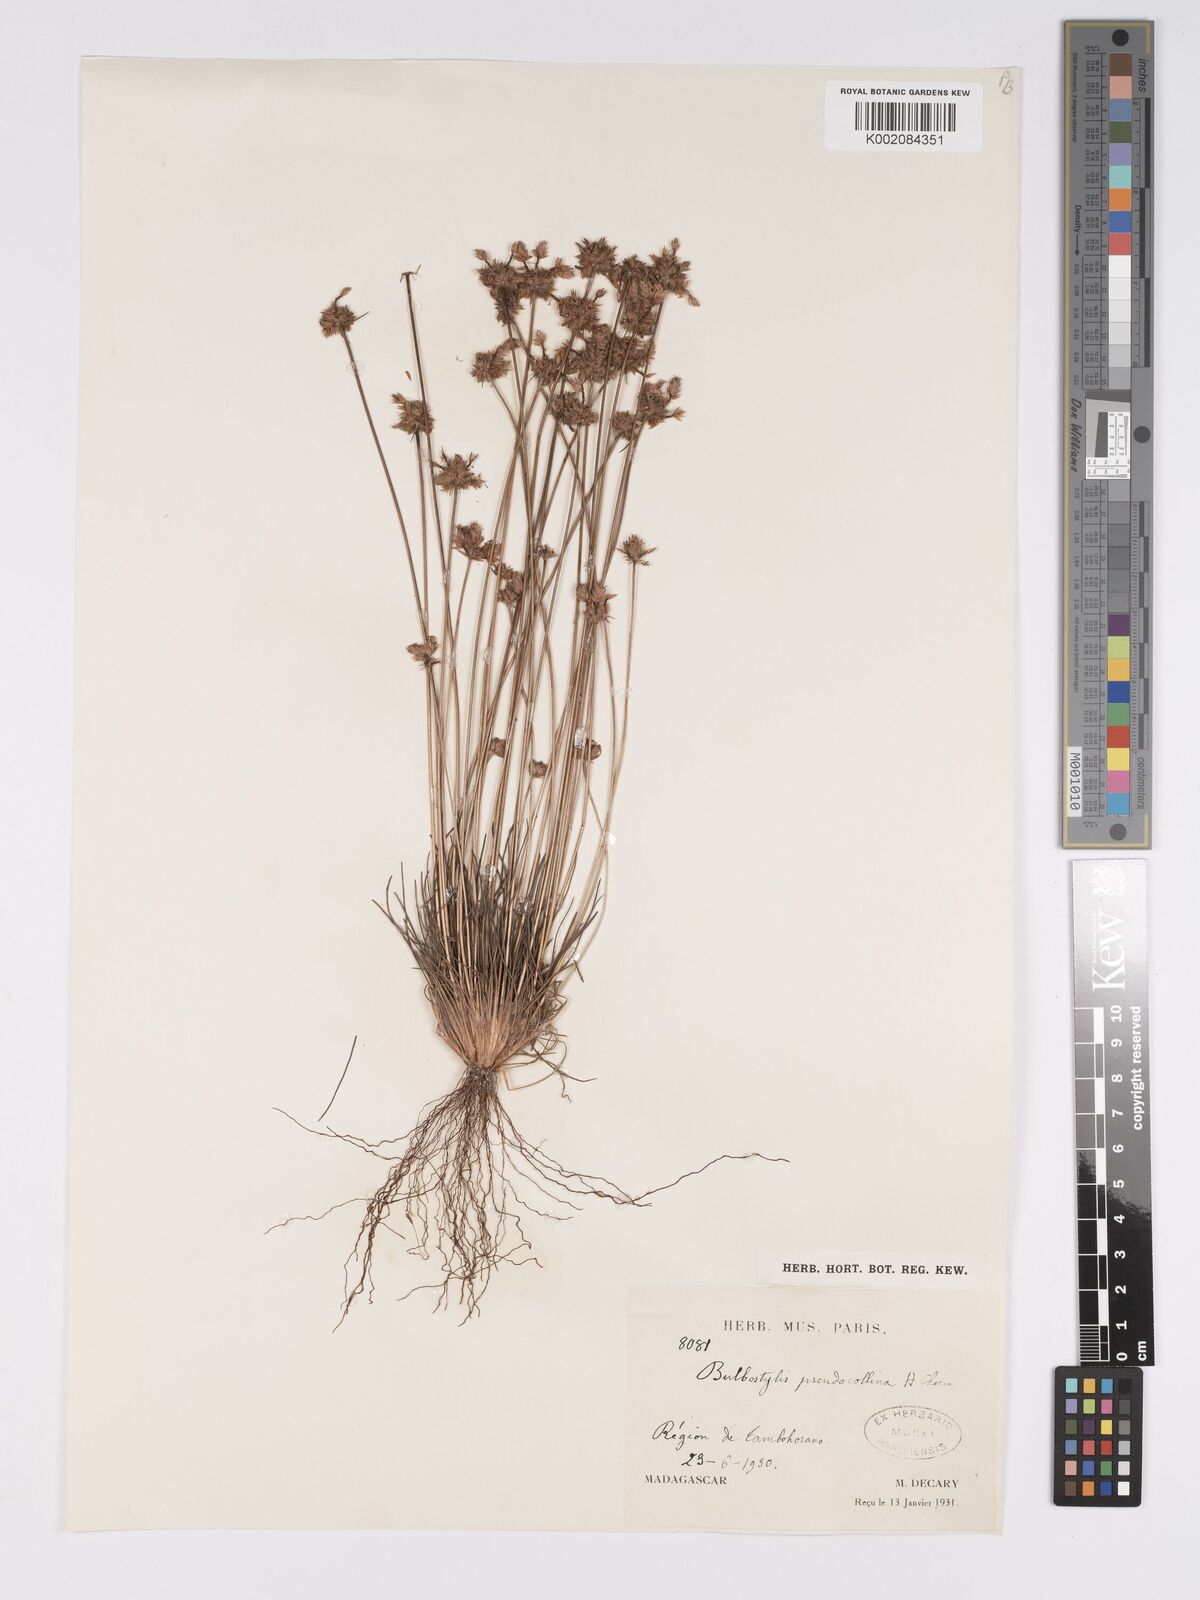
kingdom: Plantae
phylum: Tracheophyta
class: Liliopsida
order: Poales
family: Cyperaceae
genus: Bulbostylis
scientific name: Bulbostylis pseudocollina
